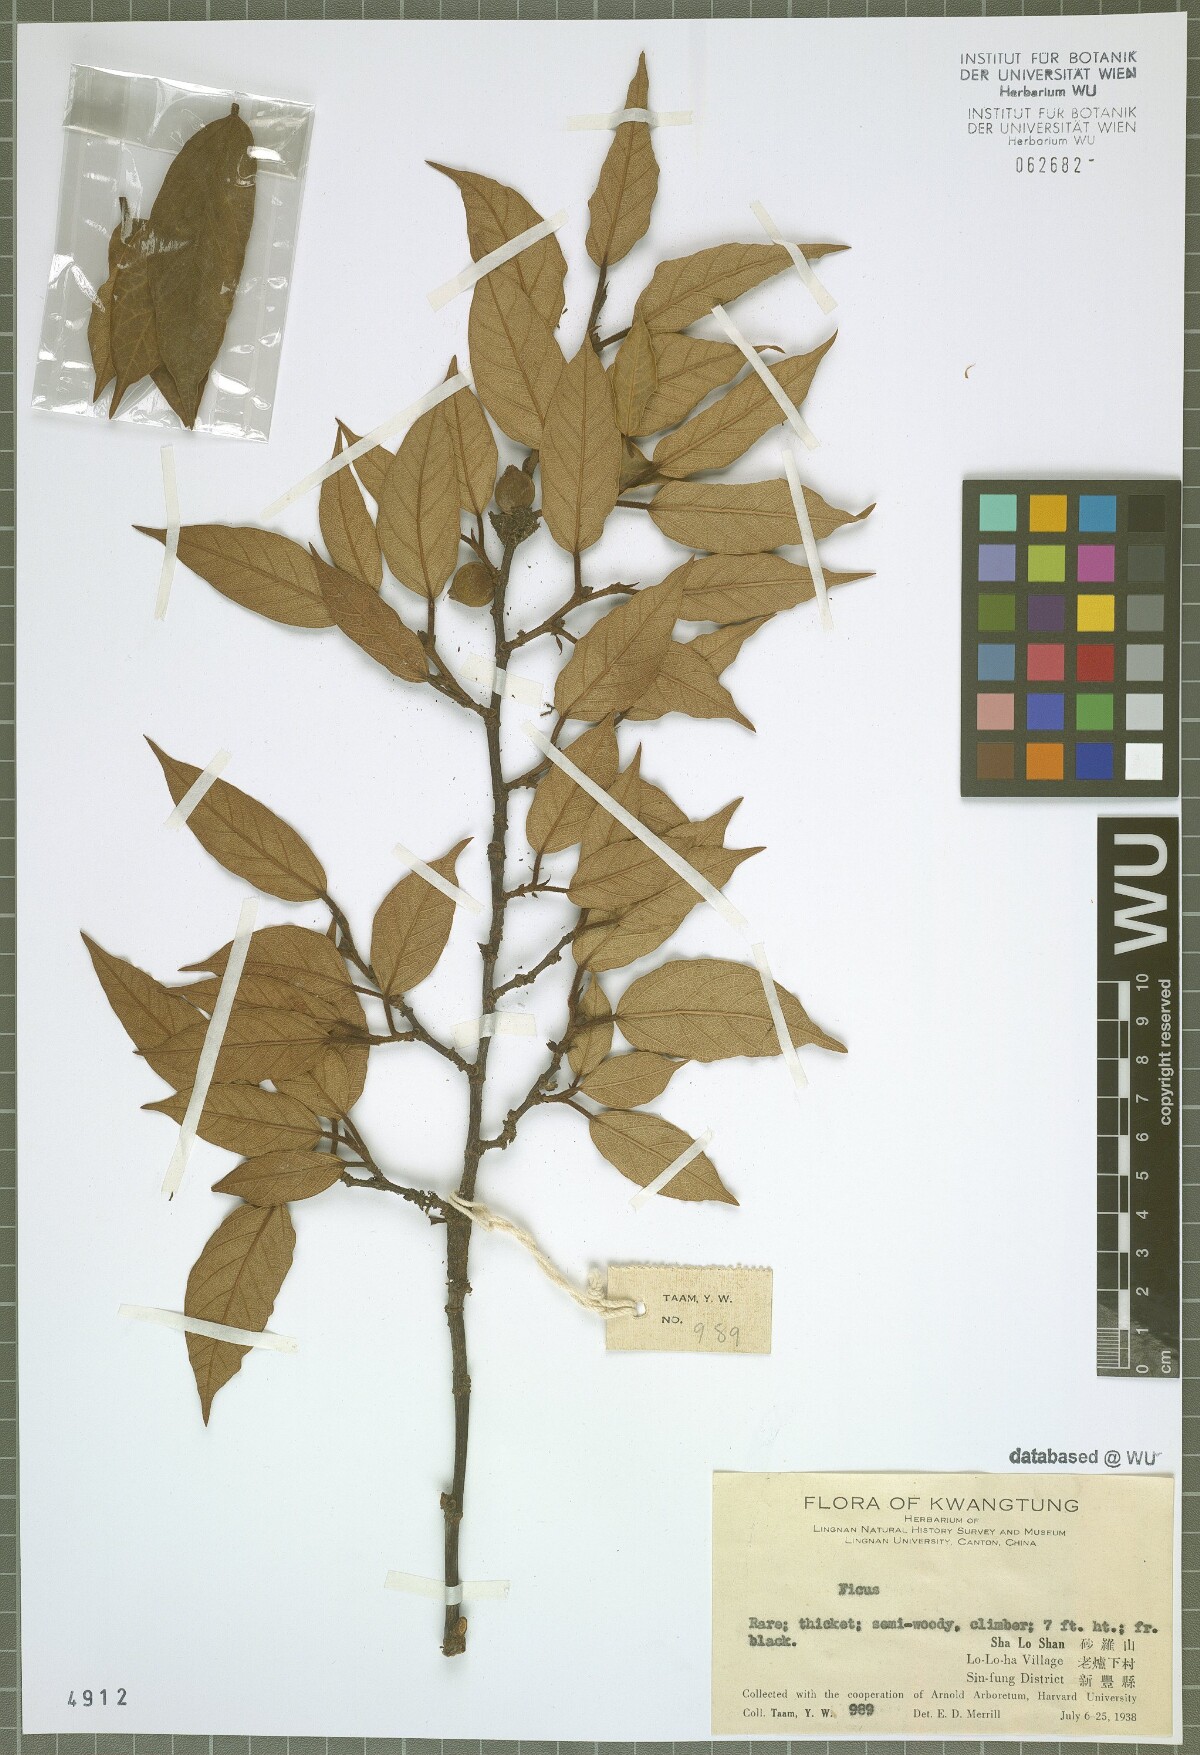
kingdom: Plantae
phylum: Tracheophyta
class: Magnoliopsida
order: Rosales
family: Moraceae
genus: Ficus
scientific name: Ficus
